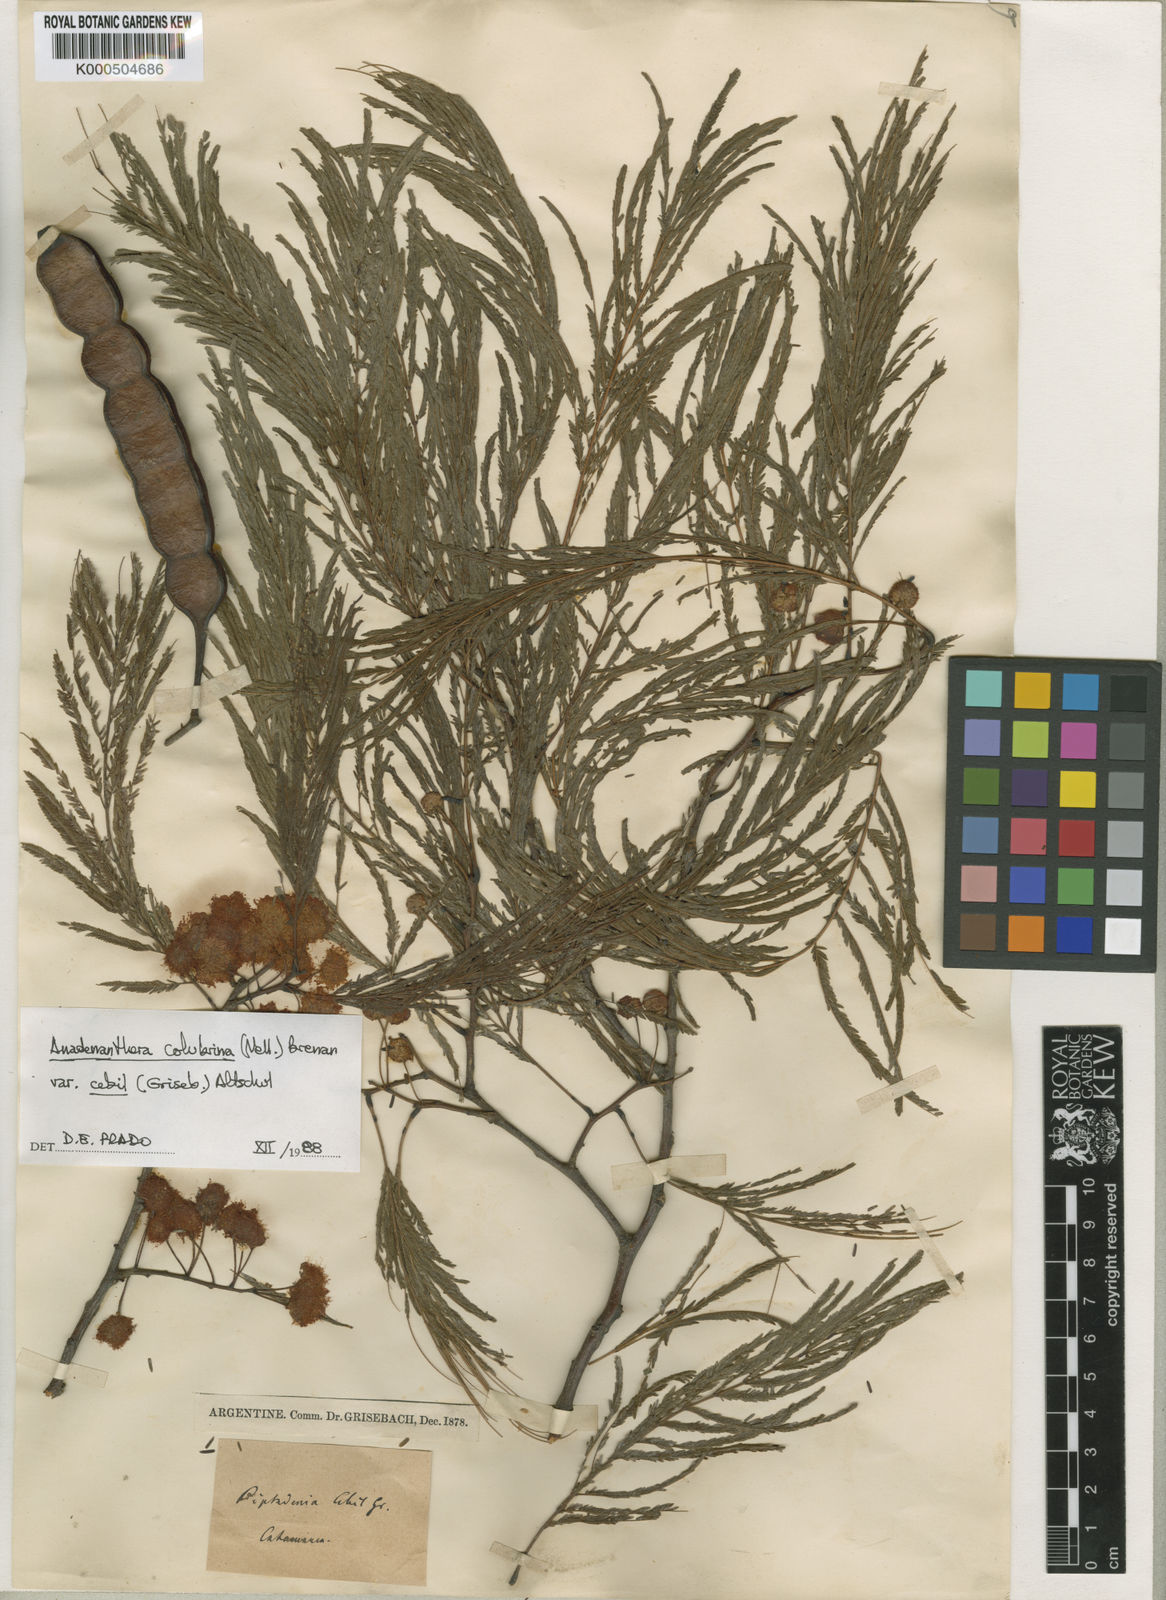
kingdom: Plantae
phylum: Tracheophyta
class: Magnoliopsida
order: Fabales
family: Fabaceae
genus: Anadenanthera
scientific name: Anadenanthera colubrina
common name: Curupay
